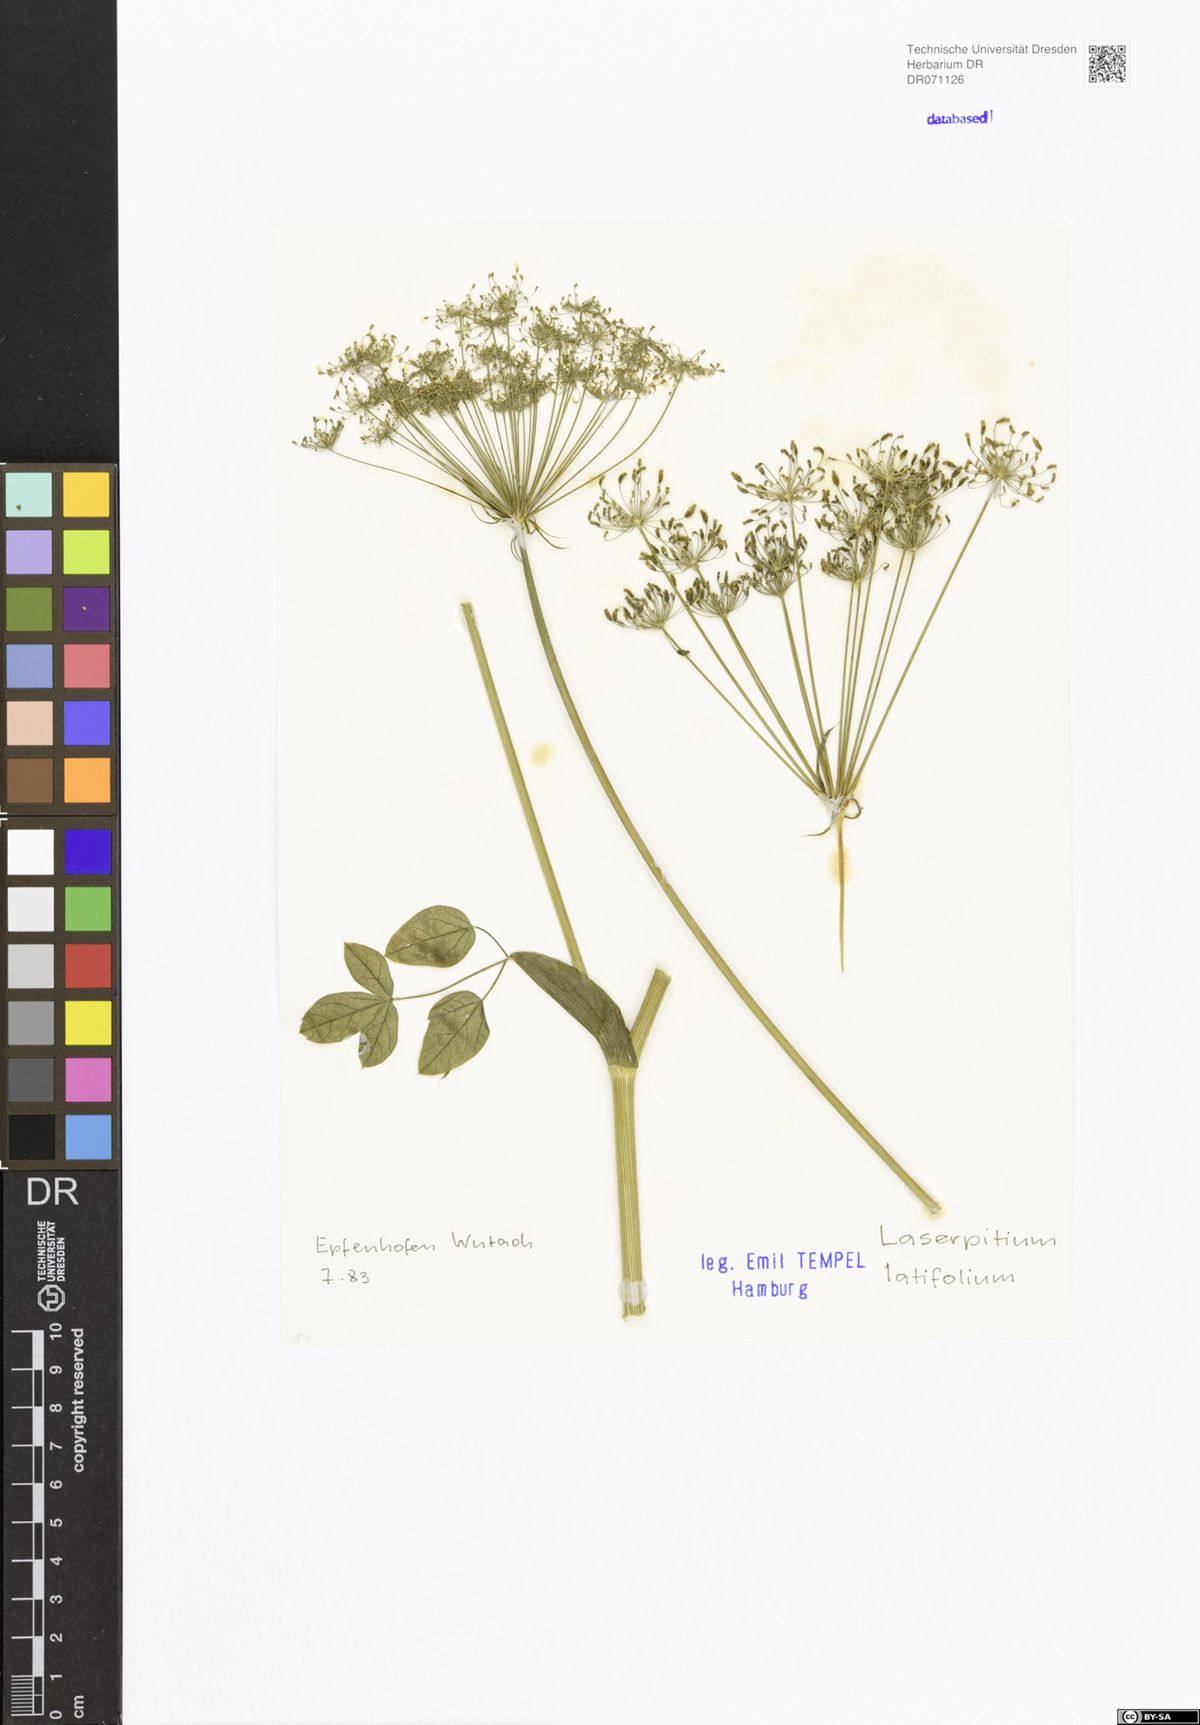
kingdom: Plantae
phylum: Tracheophyta
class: Magnoliopsida
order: Apiales
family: Apiaceae
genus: Laserpitium
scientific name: Laserpitium latifolium
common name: Broadleaf sermountain
